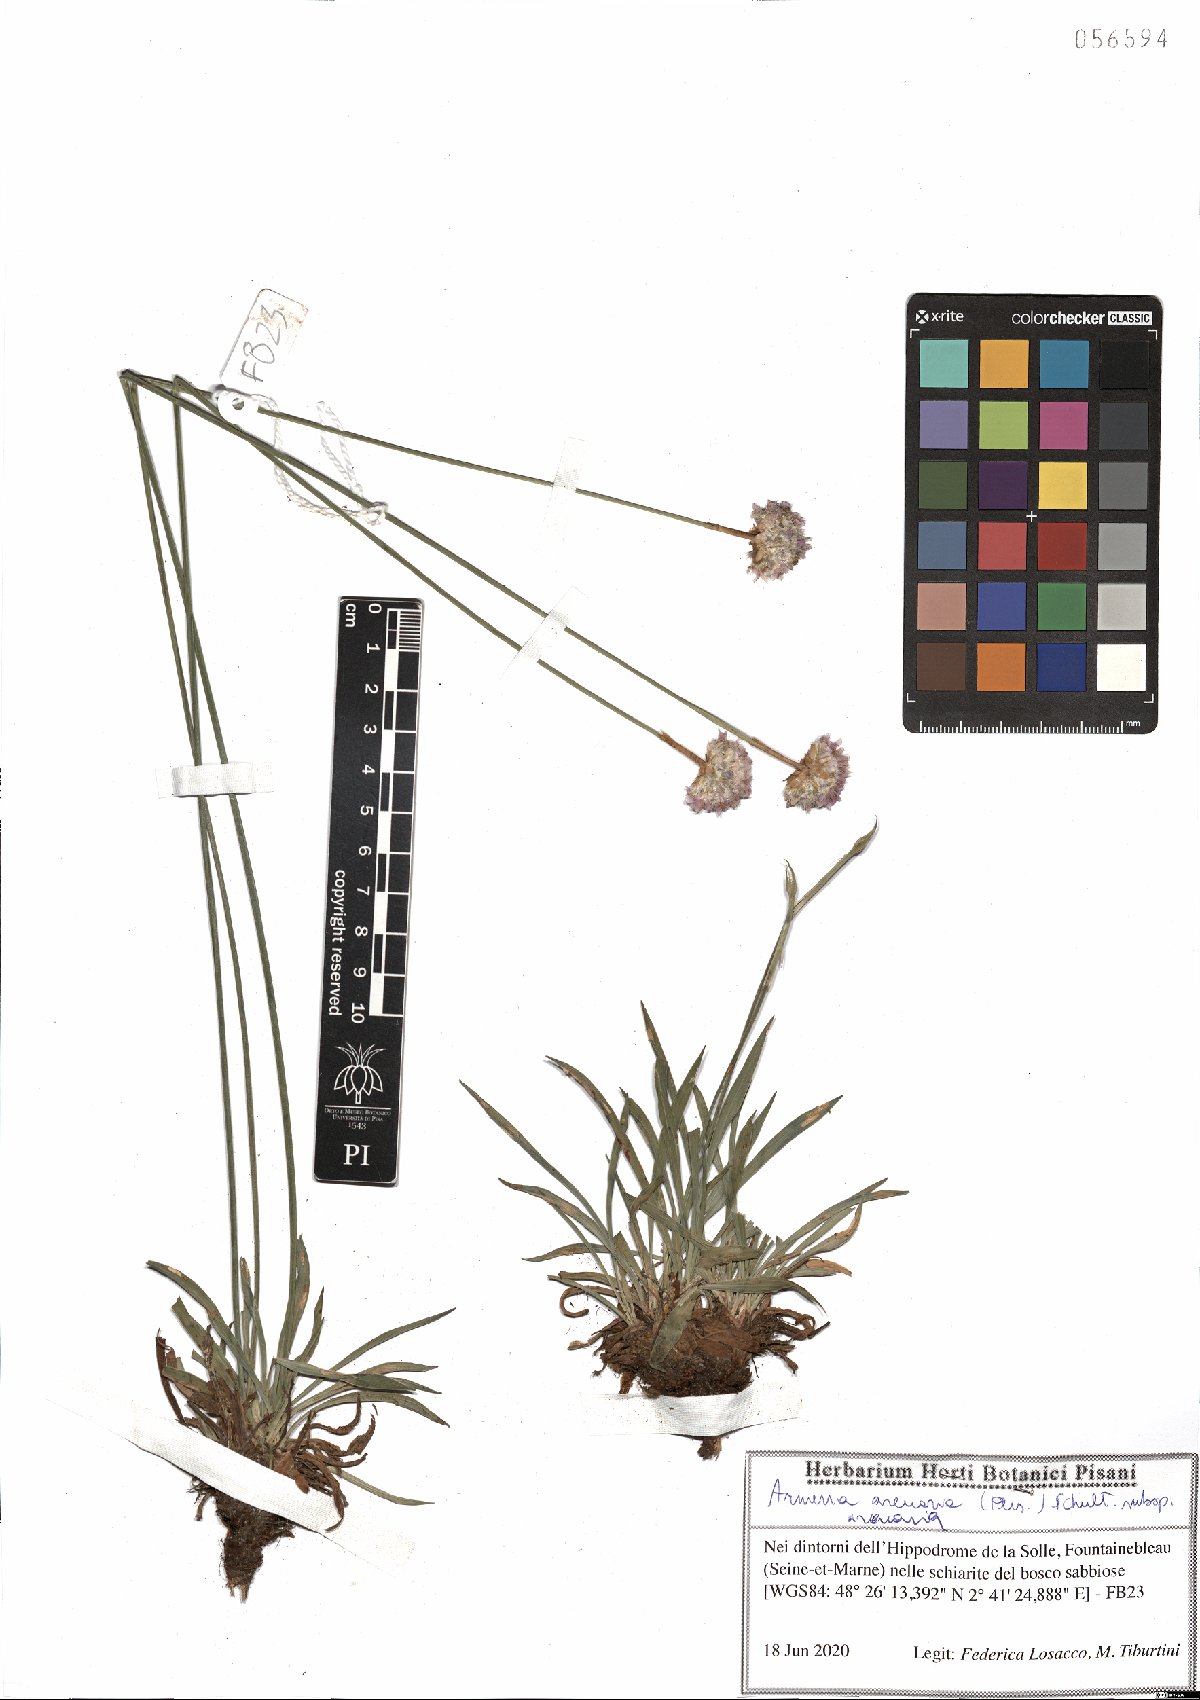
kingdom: Plantae
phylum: Tracheophyta
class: Magnoliopsida
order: Caryophyllales
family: Plumbaginaceae
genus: Armeria
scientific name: Armeria arenaria
